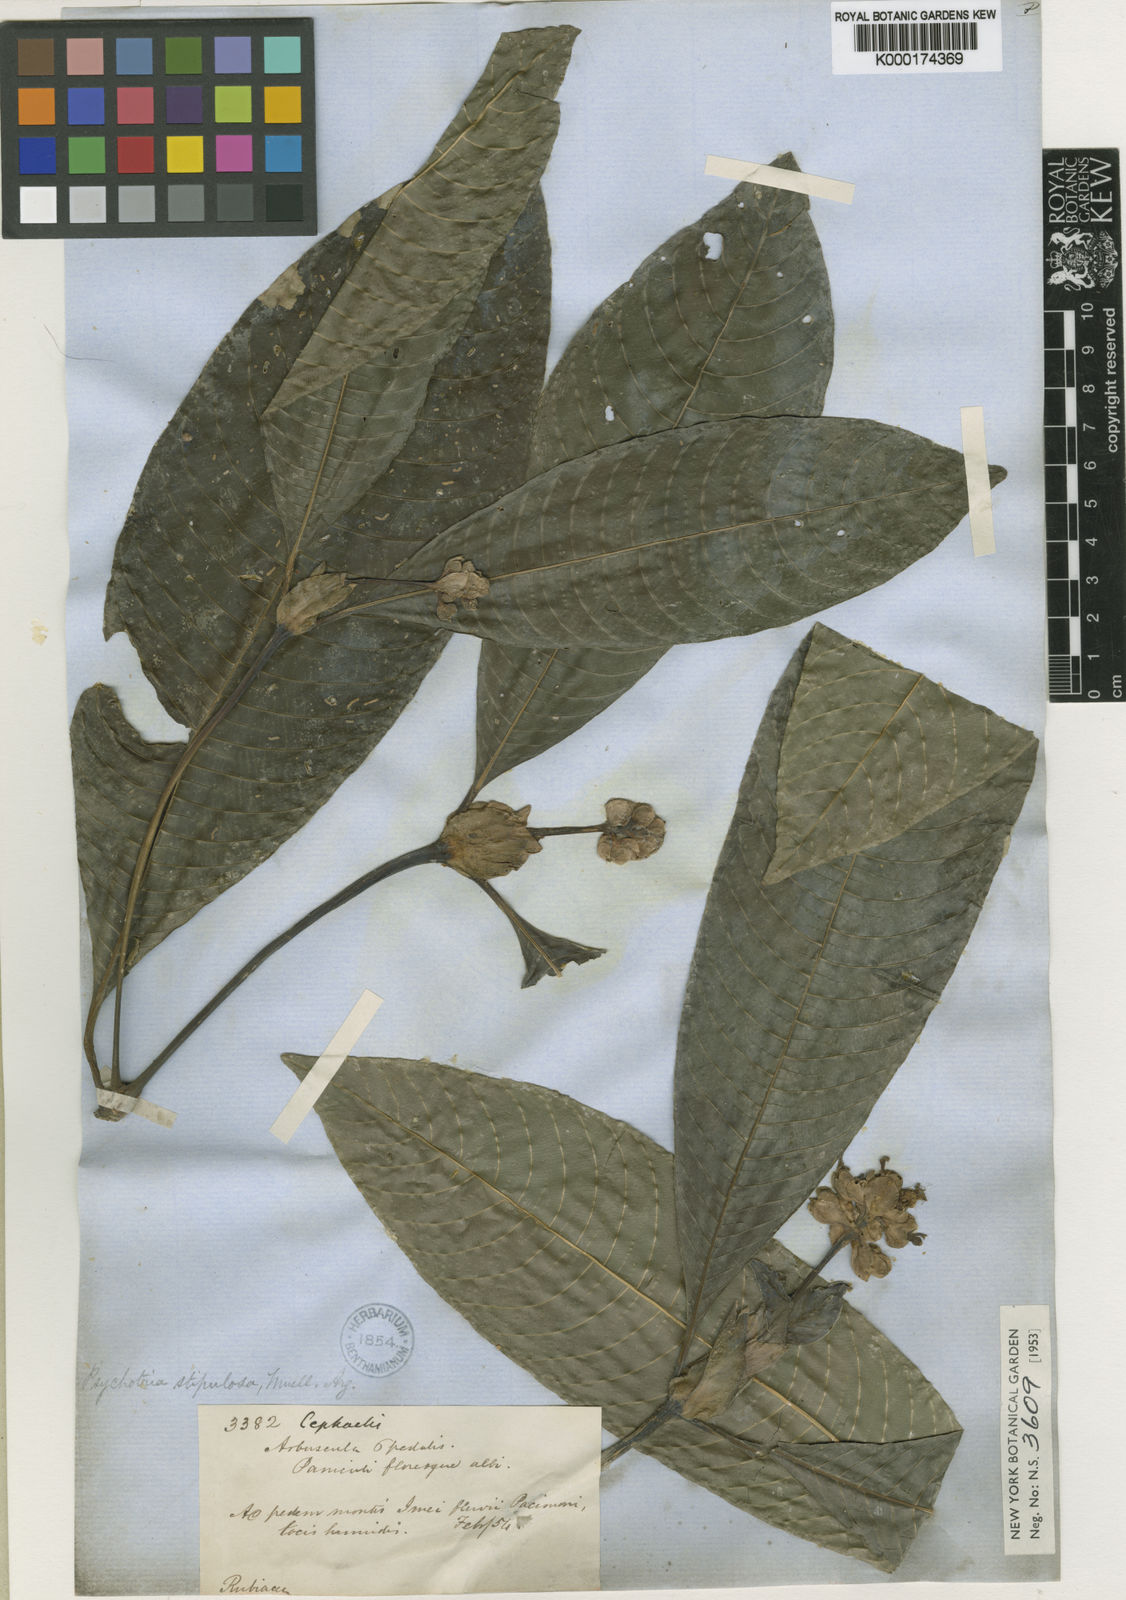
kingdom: Plantae
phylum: Tracheophyta
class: Magnoliopsida
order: Gentianales
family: Rubiaceae
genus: Psychotria
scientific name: Psychotria
